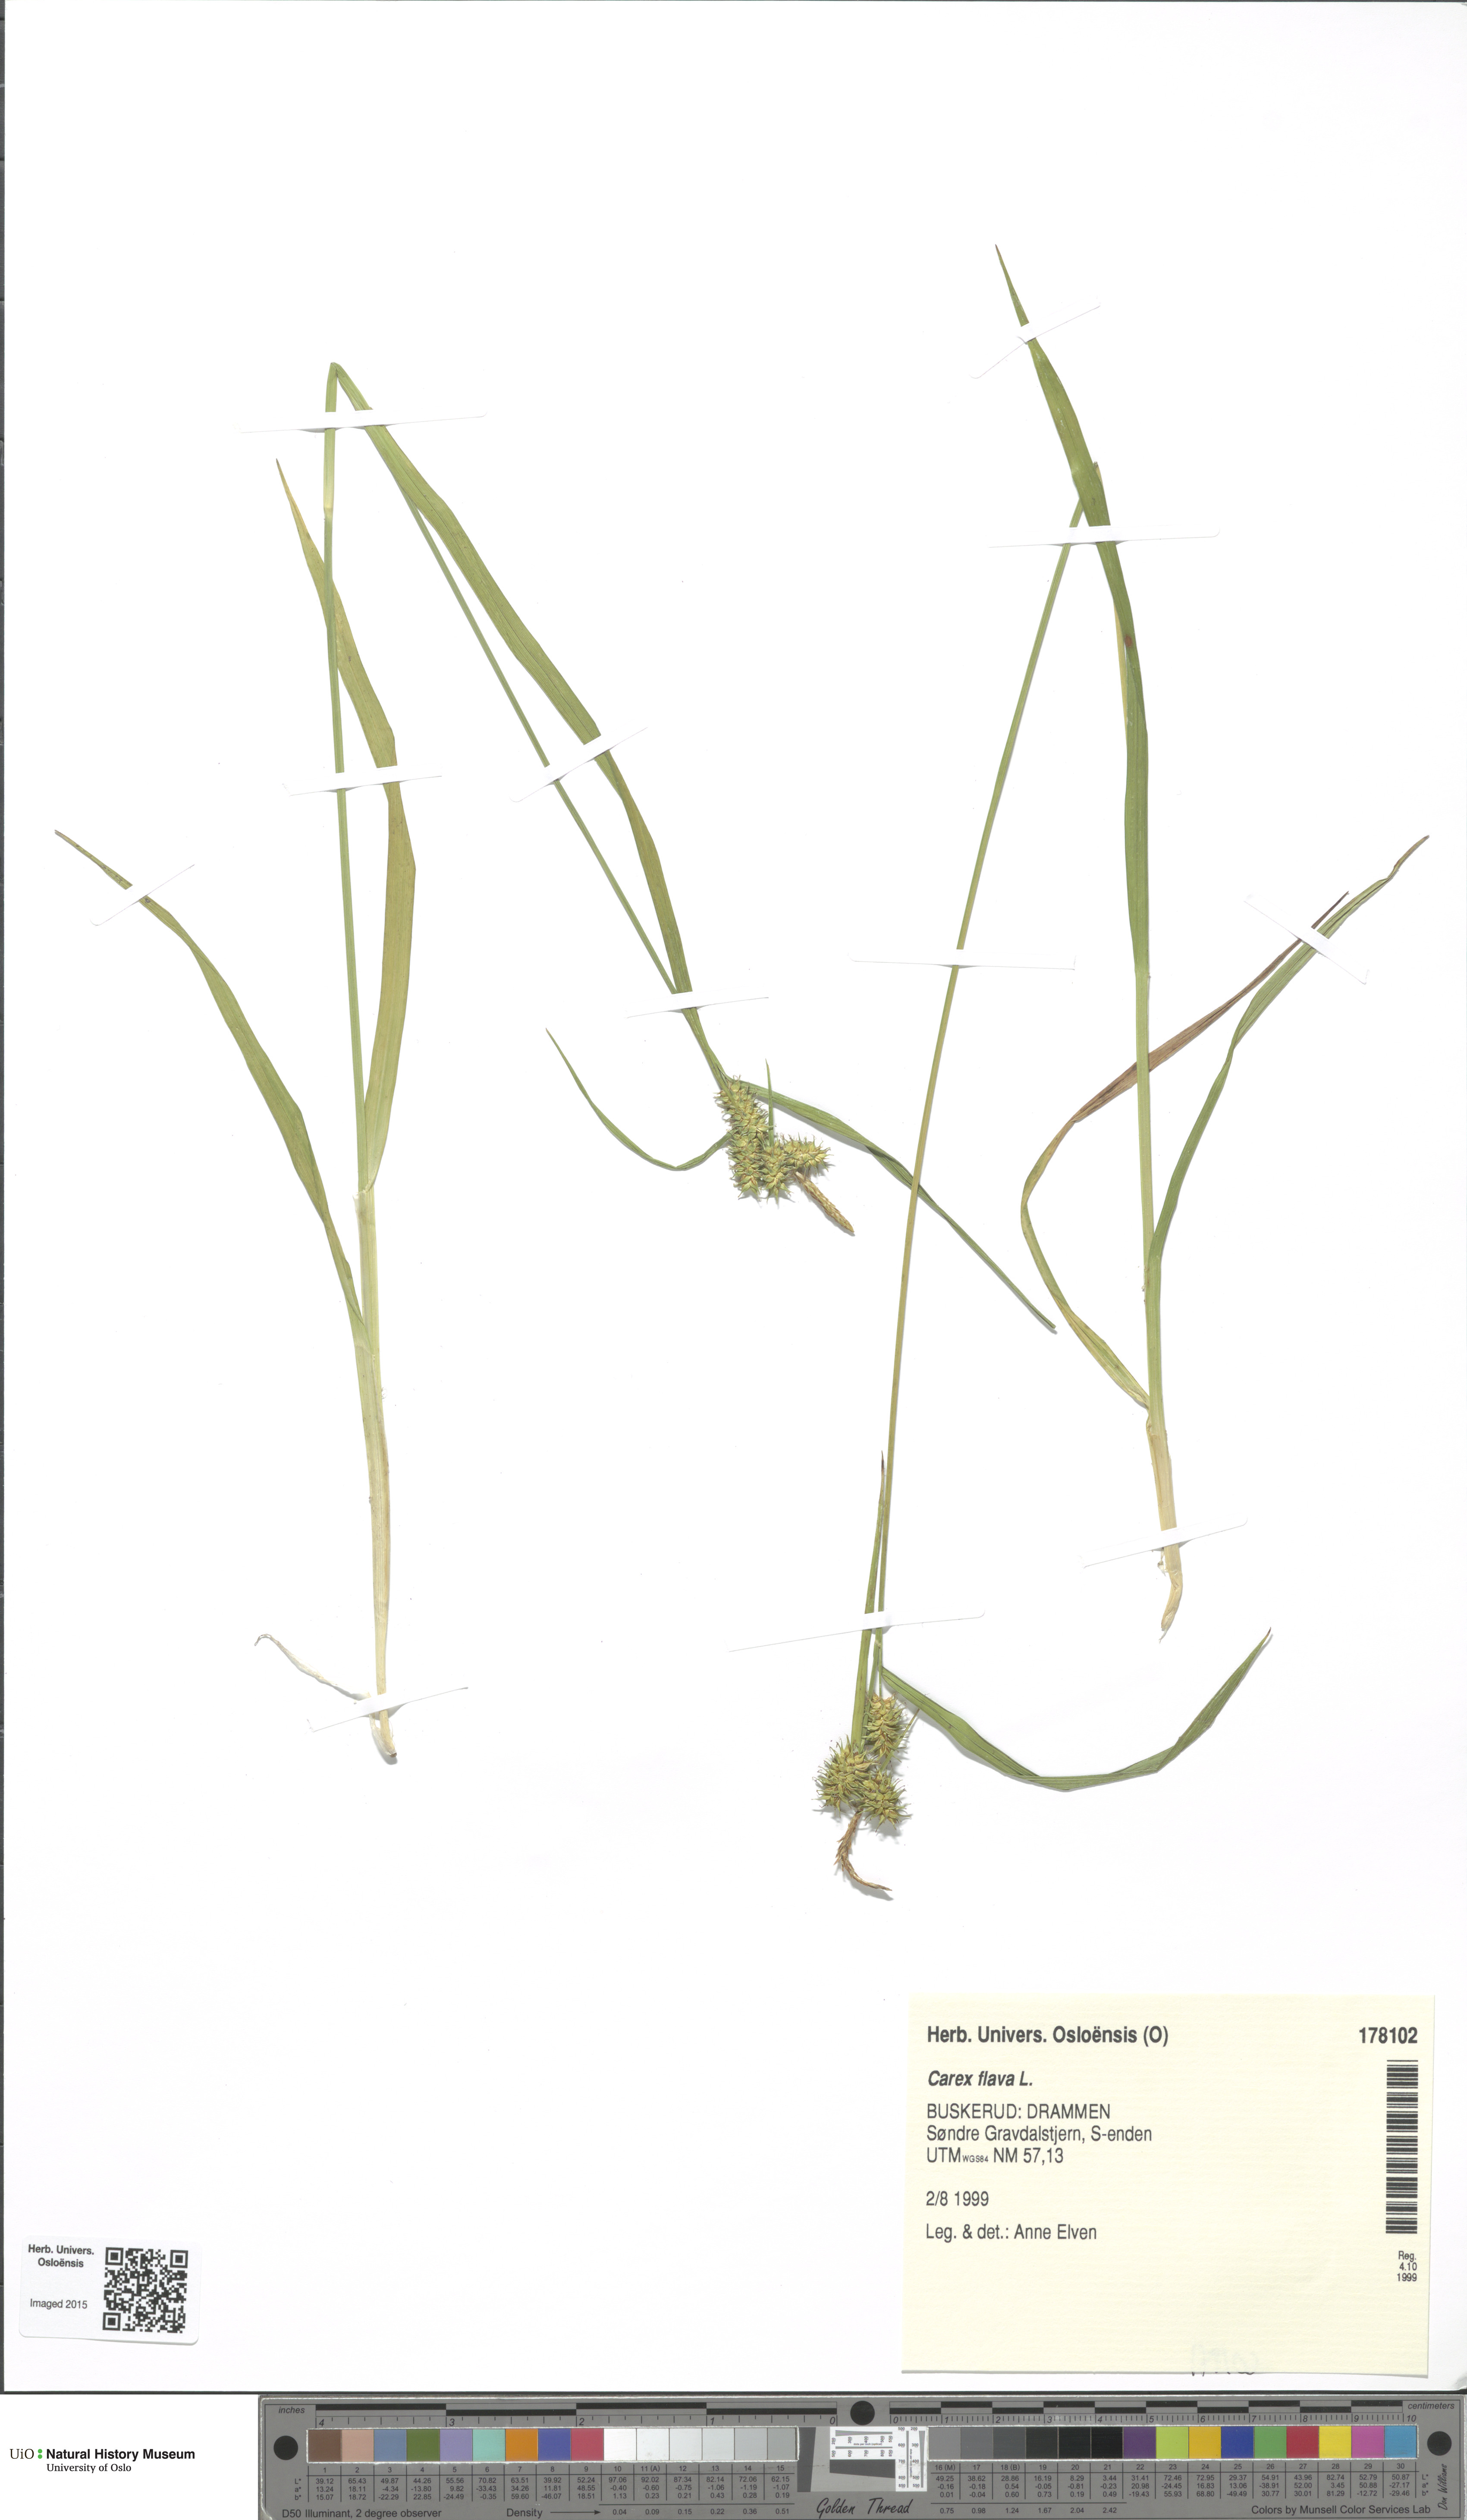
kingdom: Plantae
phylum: Tracheophyta
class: Liliopsida
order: Poales
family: Cyperaceae
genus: Carex
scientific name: Carex flava
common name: Large yellow-sedge
